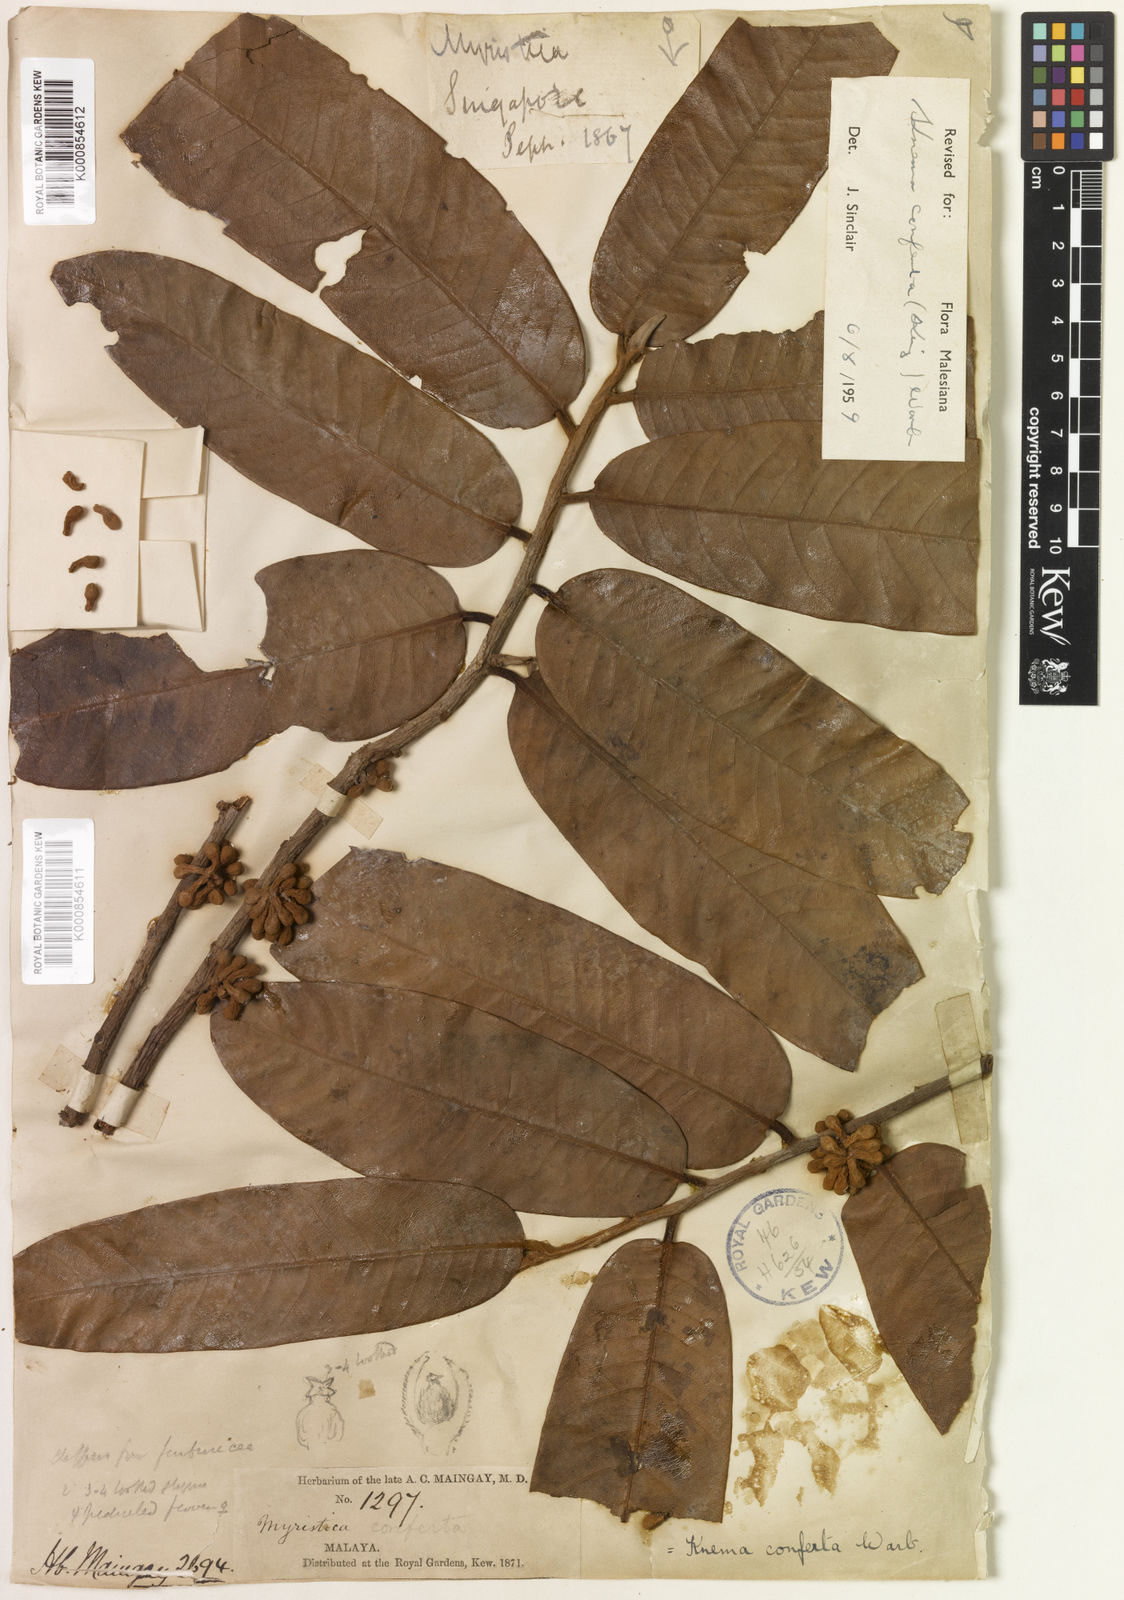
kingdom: Plantae
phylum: Tracheophyta
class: Magnoliopsida
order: Magnoliales
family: Myristicaceae
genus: Knema
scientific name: Knema conferta
